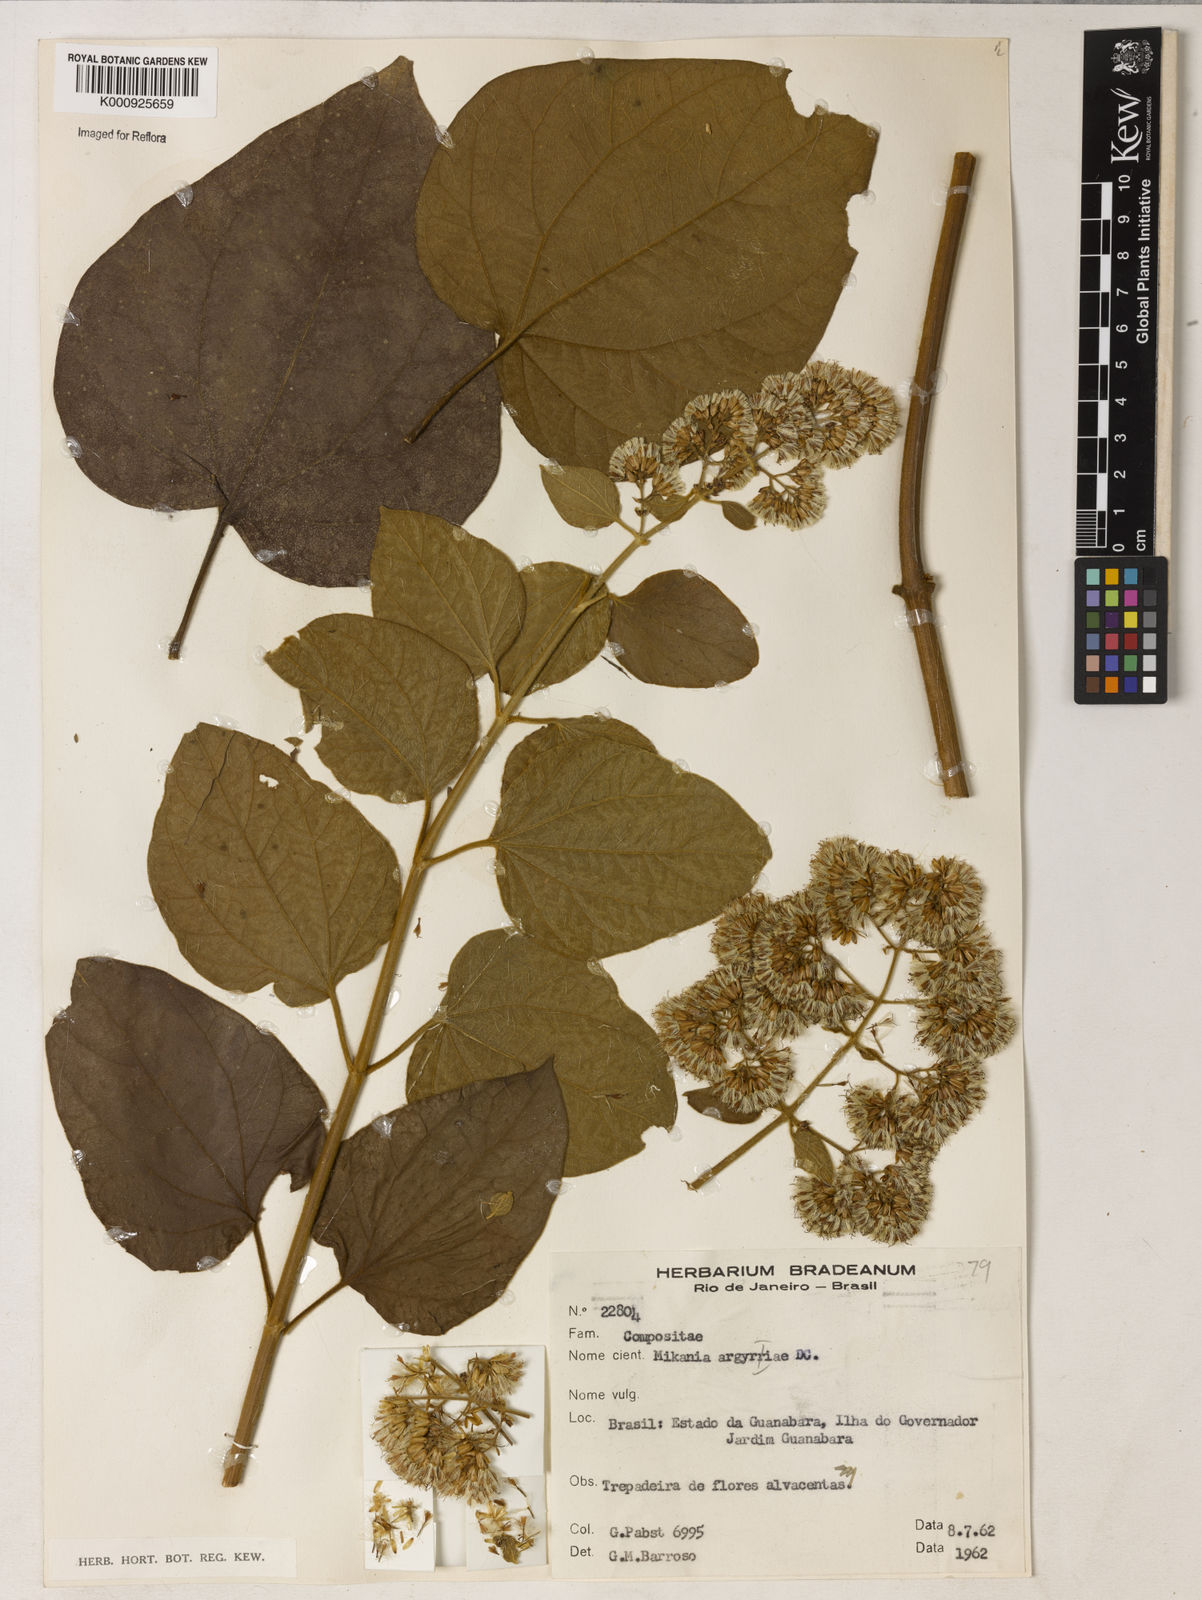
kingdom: Plantae
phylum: Tracheophyta
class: Magnoliopsida
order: Asterales
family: Asteraceae
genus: Mikania
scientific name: Mikania
